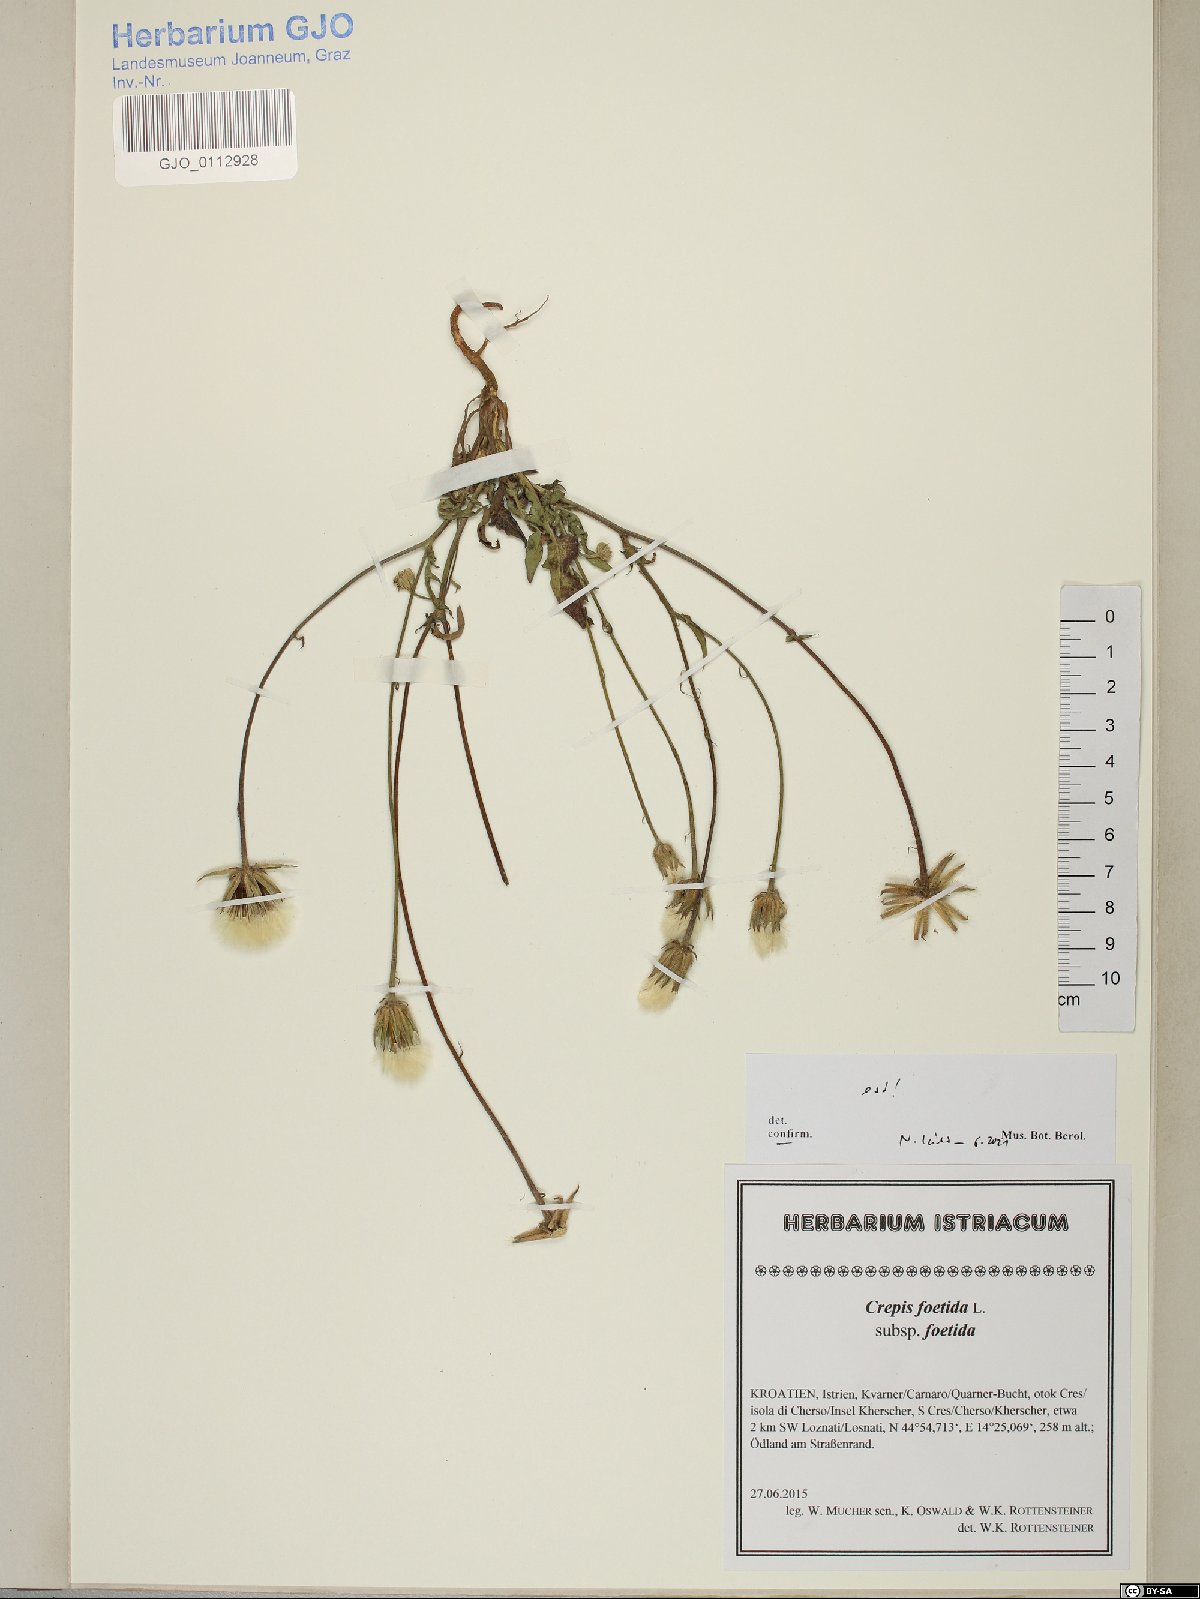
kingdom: Plantae
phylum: Tracheophyta
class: Magnoliopsida
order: Asterales
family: Asteraceae
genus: Crepis
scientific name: Crepis foetida
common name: Stinking hawk's-beard
